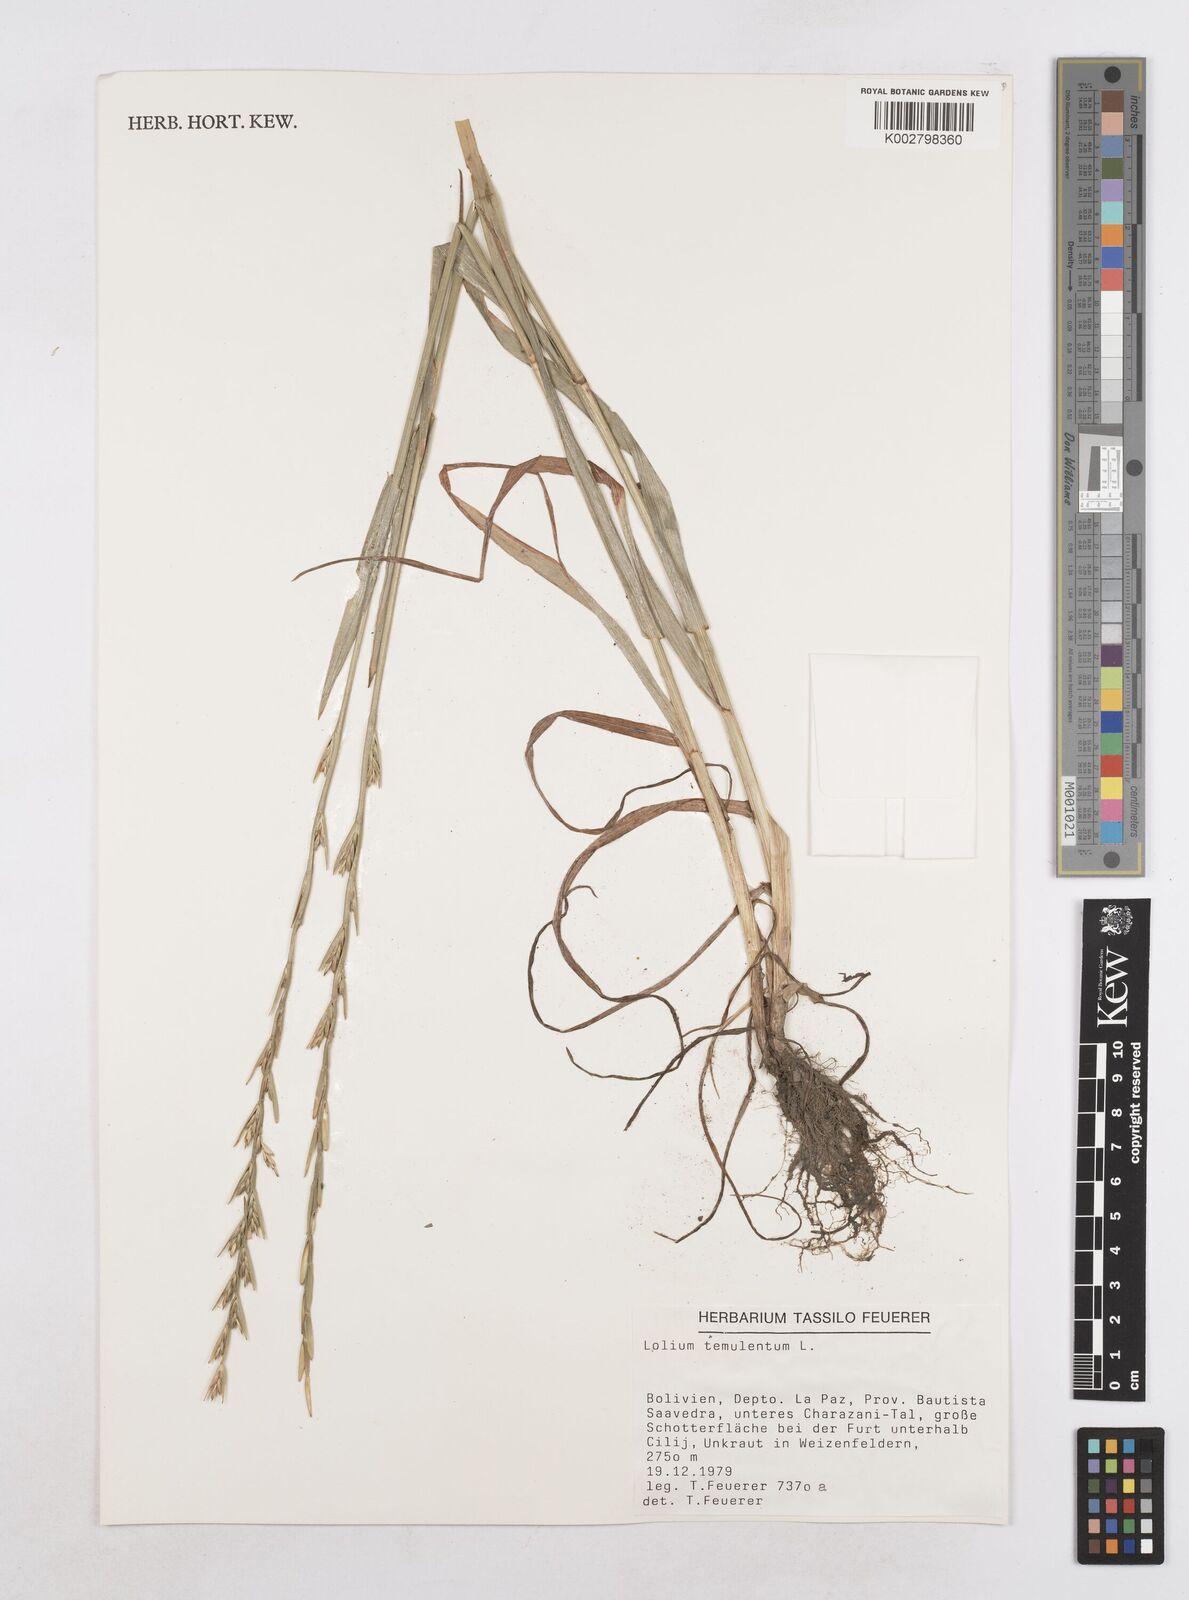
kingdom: Plantae
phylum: Tracheophyta
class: Liliopsida
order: Poales
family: Poaceae
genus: Lolium
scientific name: Lolium temulentum
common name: Darnel
